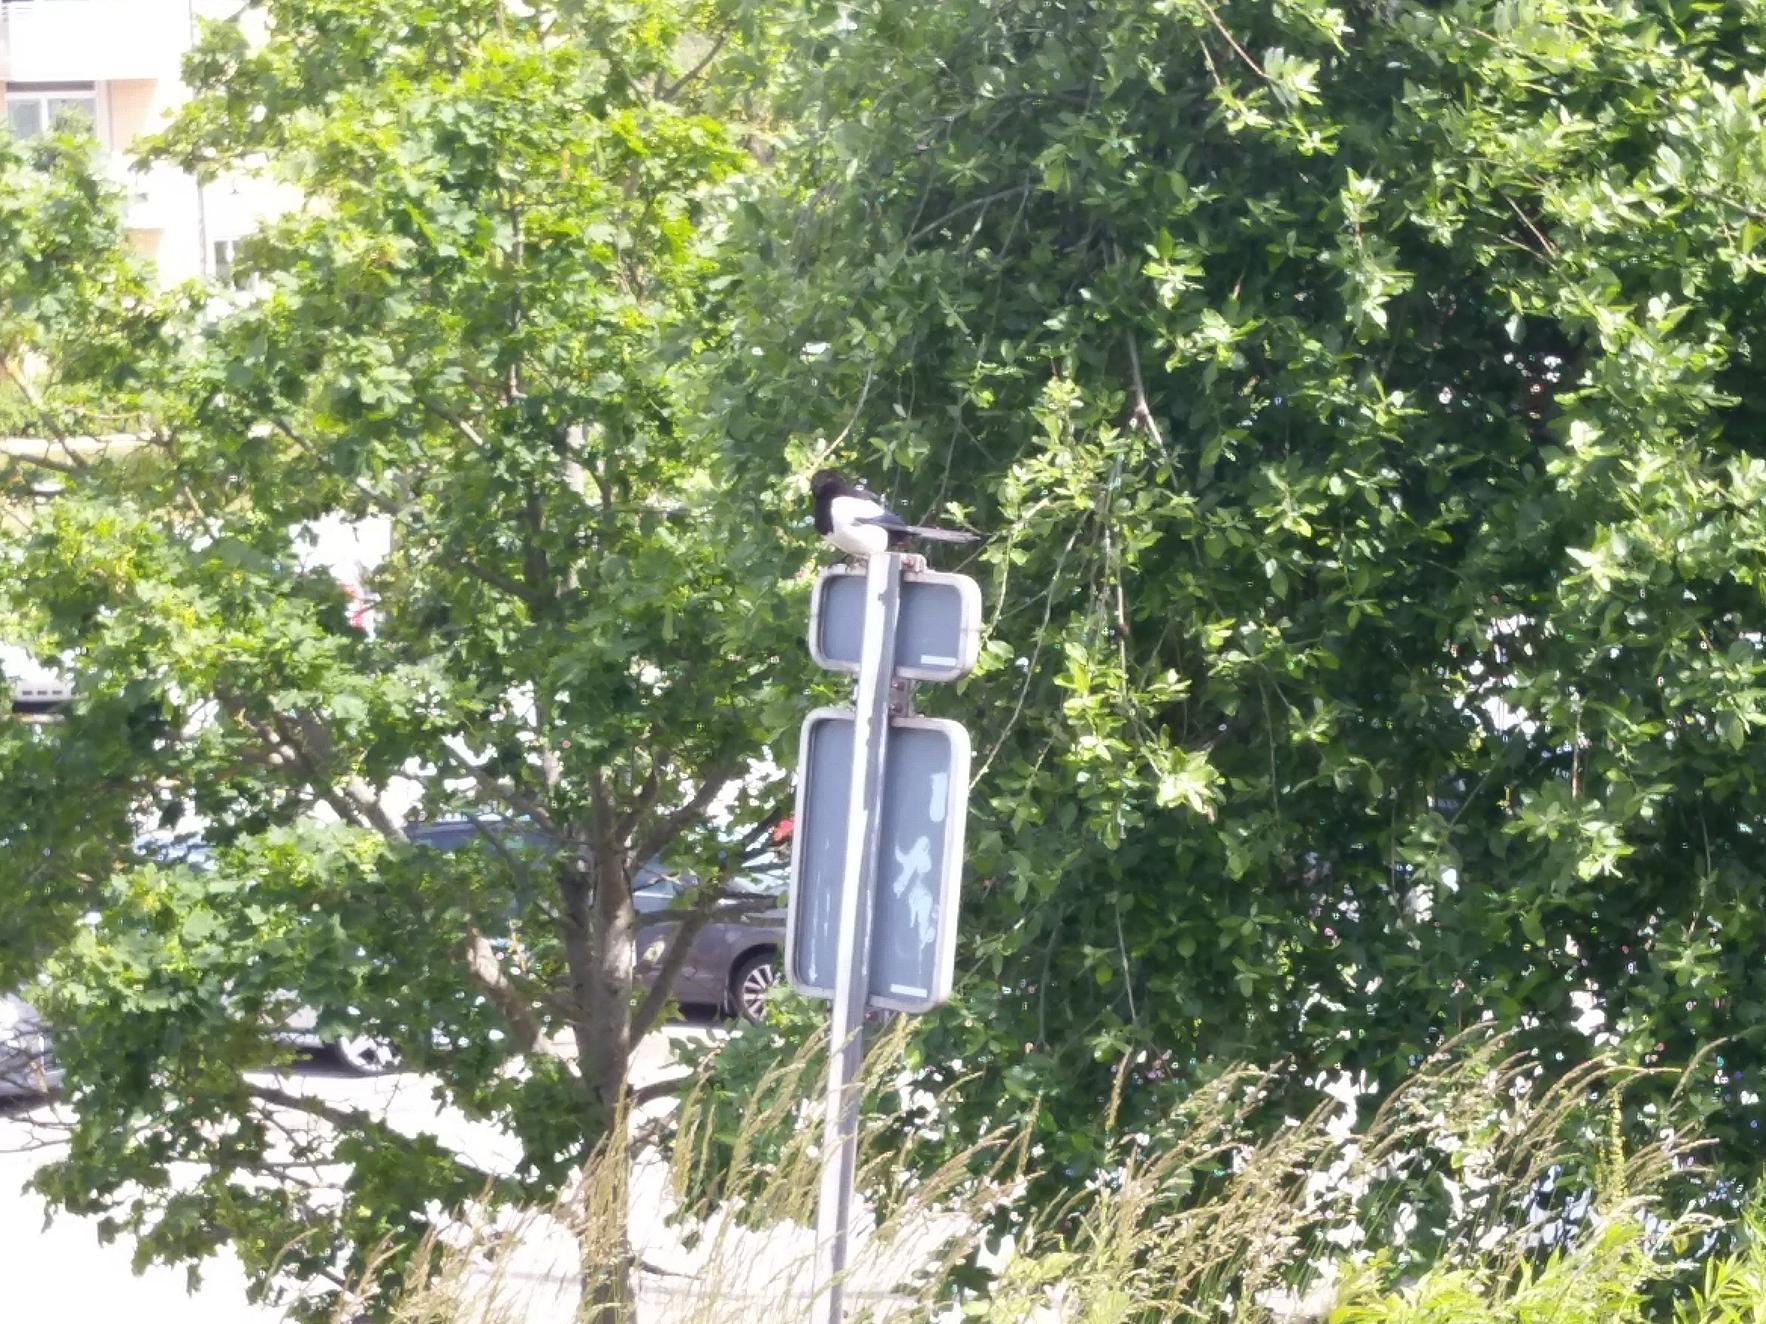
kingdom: Animalia
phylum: Chordata
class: Aves
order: Passeriformes
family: Corvidae
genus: Pica
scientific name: Pica pica
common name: Husskade
